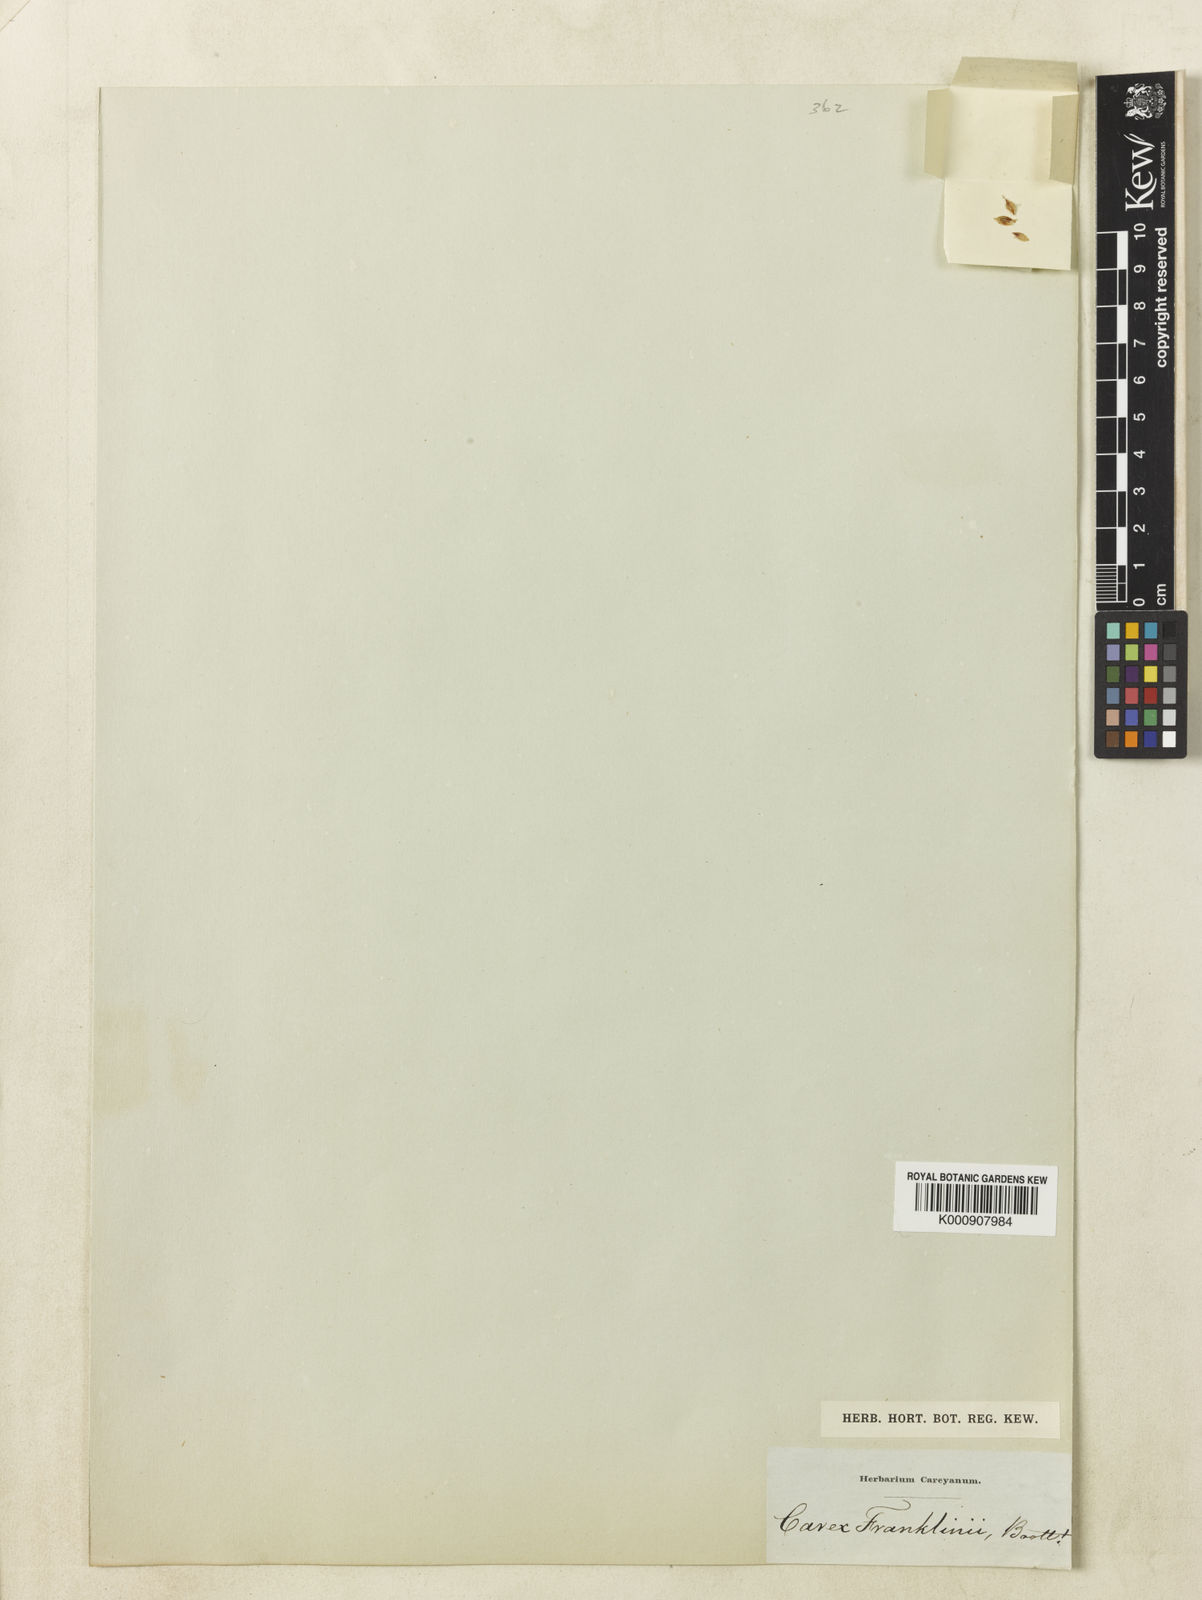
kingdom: Plantae
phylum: Tracheophyta
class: Liliopsida
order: Poales
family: Cyperaceae
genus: Carex
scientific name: Carex petricosa
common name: Rock sedge
